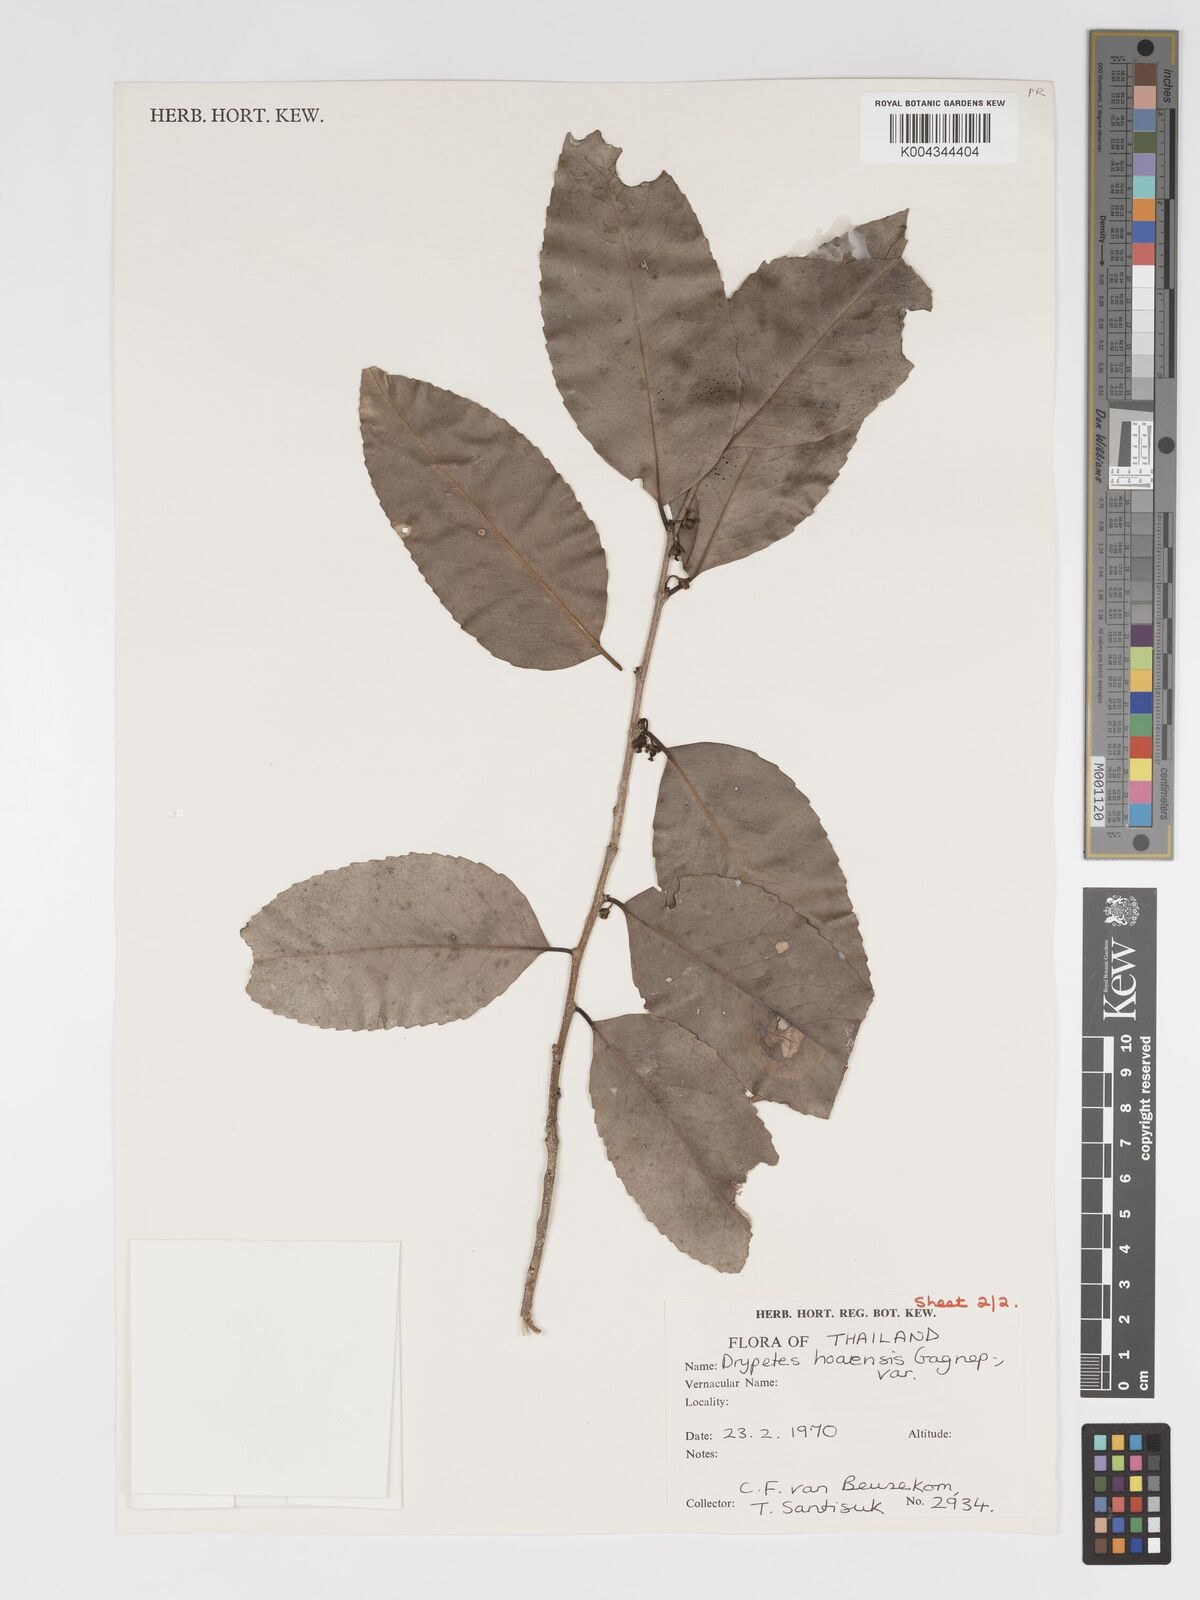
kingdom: Plantae
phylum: Tracheophyta
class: Magnoliopsida
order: Malpighiales
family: Putranjivaceae
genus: Drypetes
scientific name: Drypetes hoaensis
